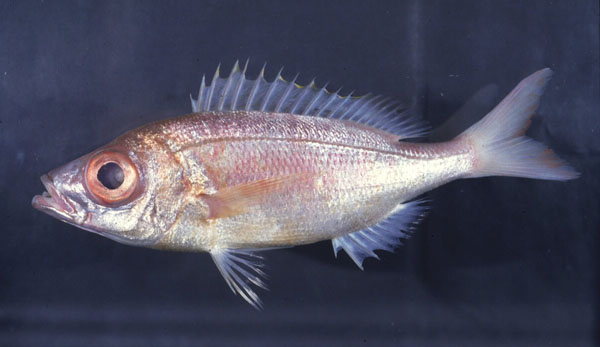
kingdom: Animalia
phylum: Chordata
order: Perciformes
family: Sparidae
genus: Spicara
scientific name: Spicara australis
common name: Picarel
